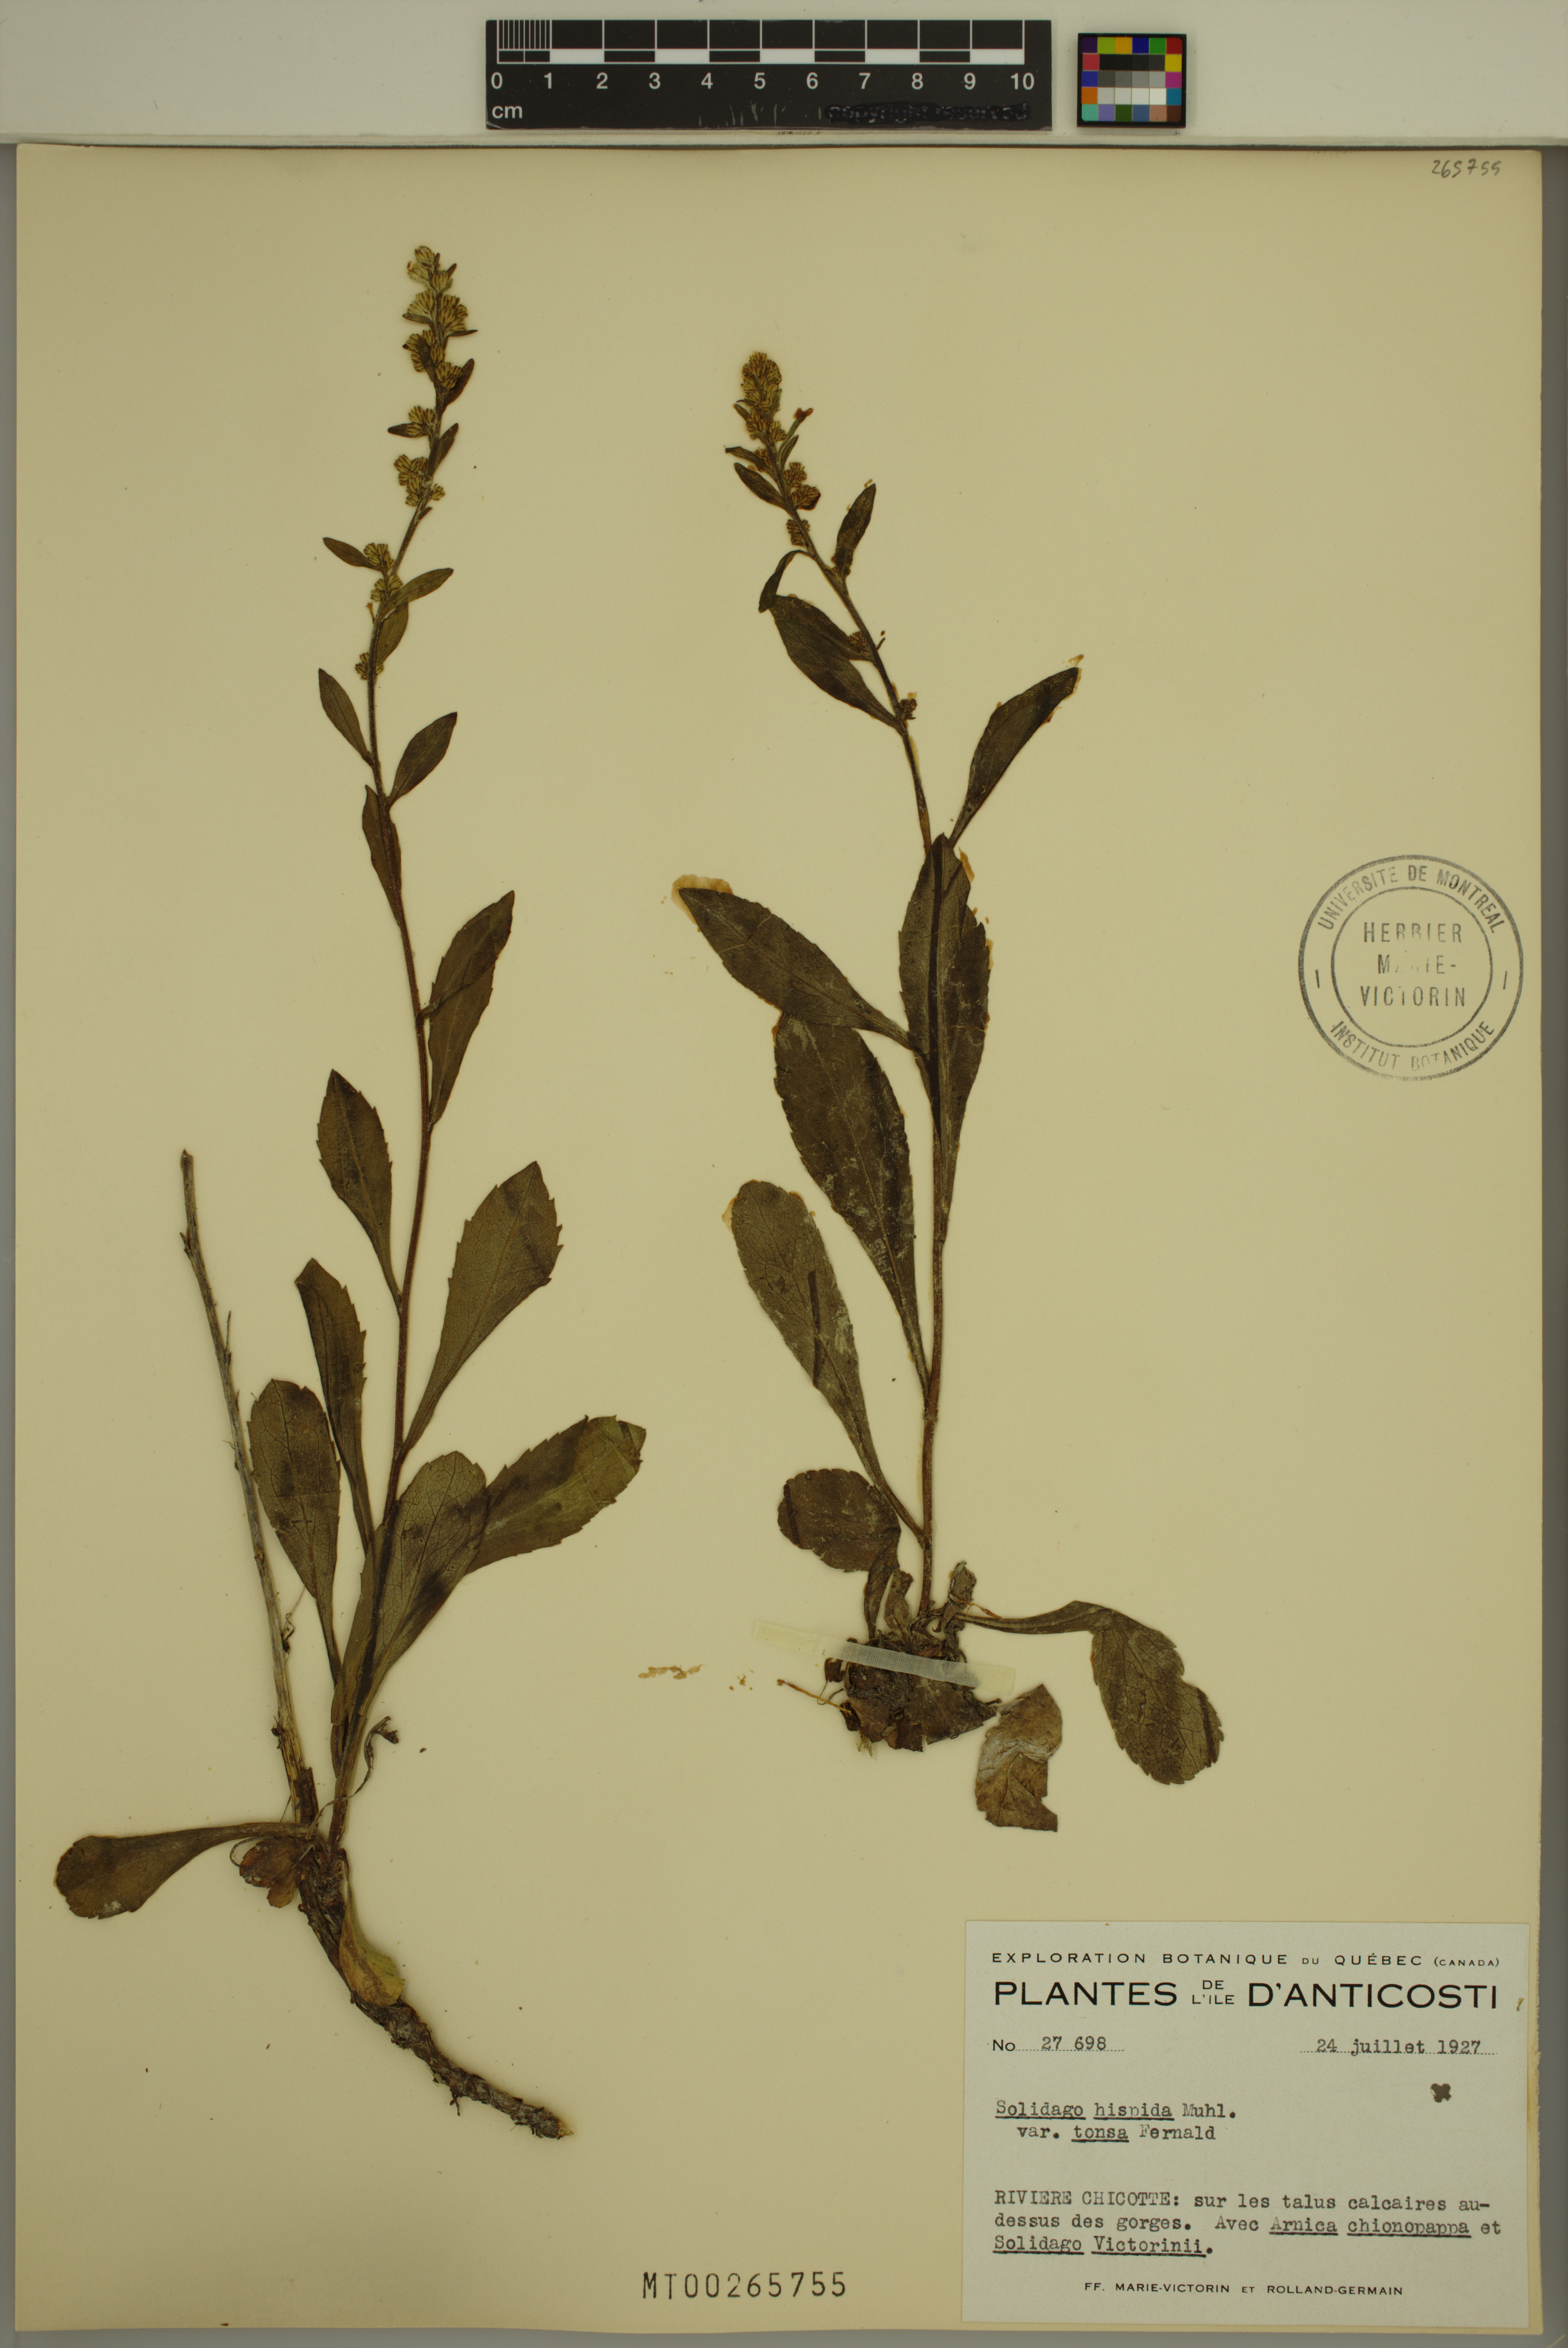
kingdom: Plantae
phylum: Tracheophyta
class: Magnoliopsida
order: Asterales
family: Asteraceae
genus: Solidago
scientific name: Solidago hispida
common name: Hairy goldenrod
